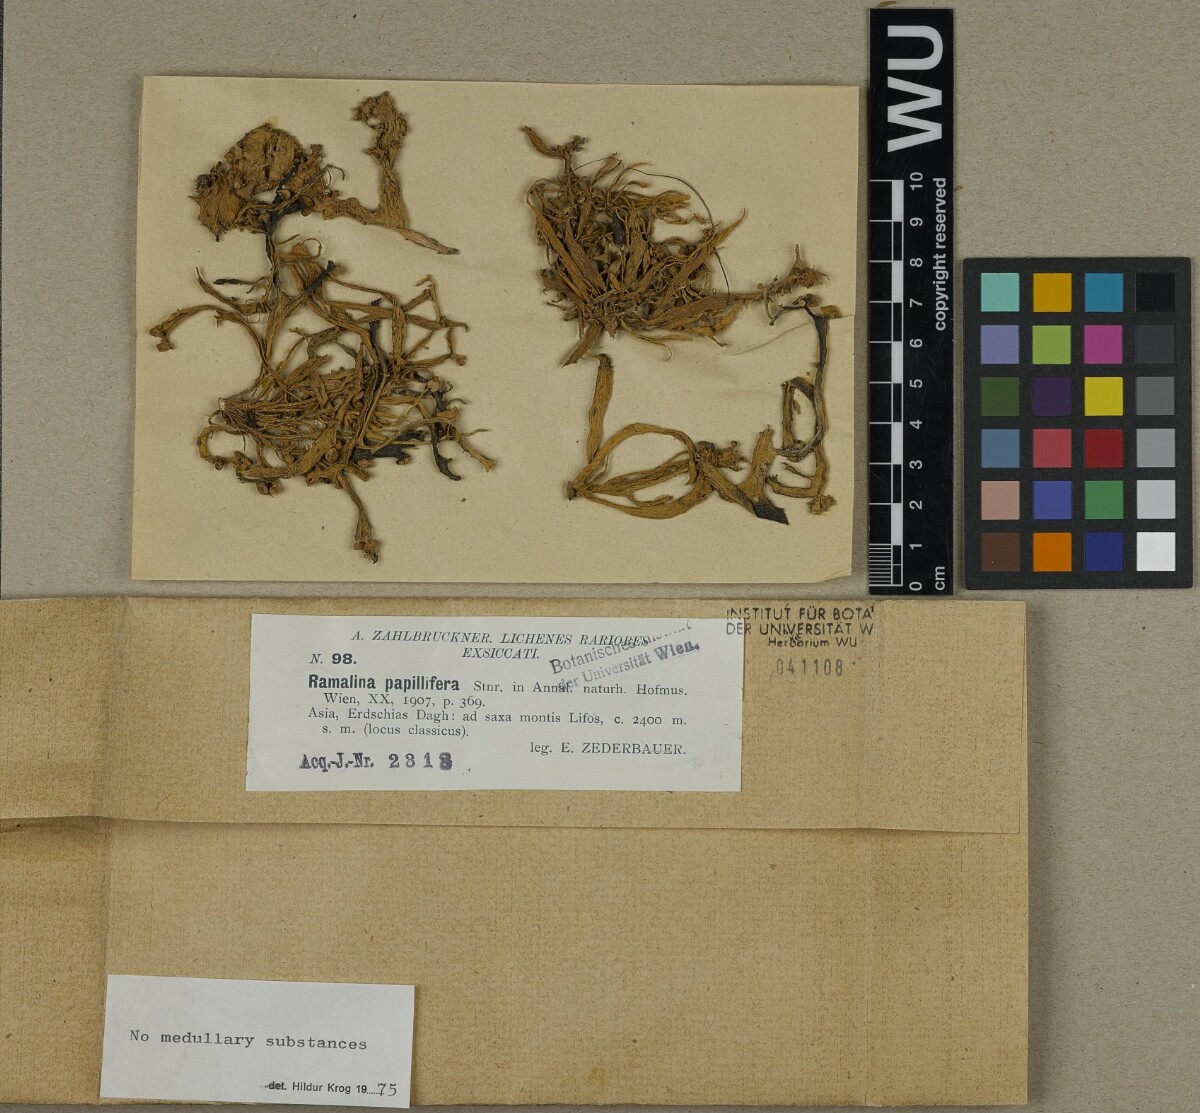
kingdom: Fungi
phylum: Ascomycota
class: Lecanoromycetes
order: Lecanorales
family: Ramalinaceae
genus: Ramalina
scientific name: Ramalina papillifera
